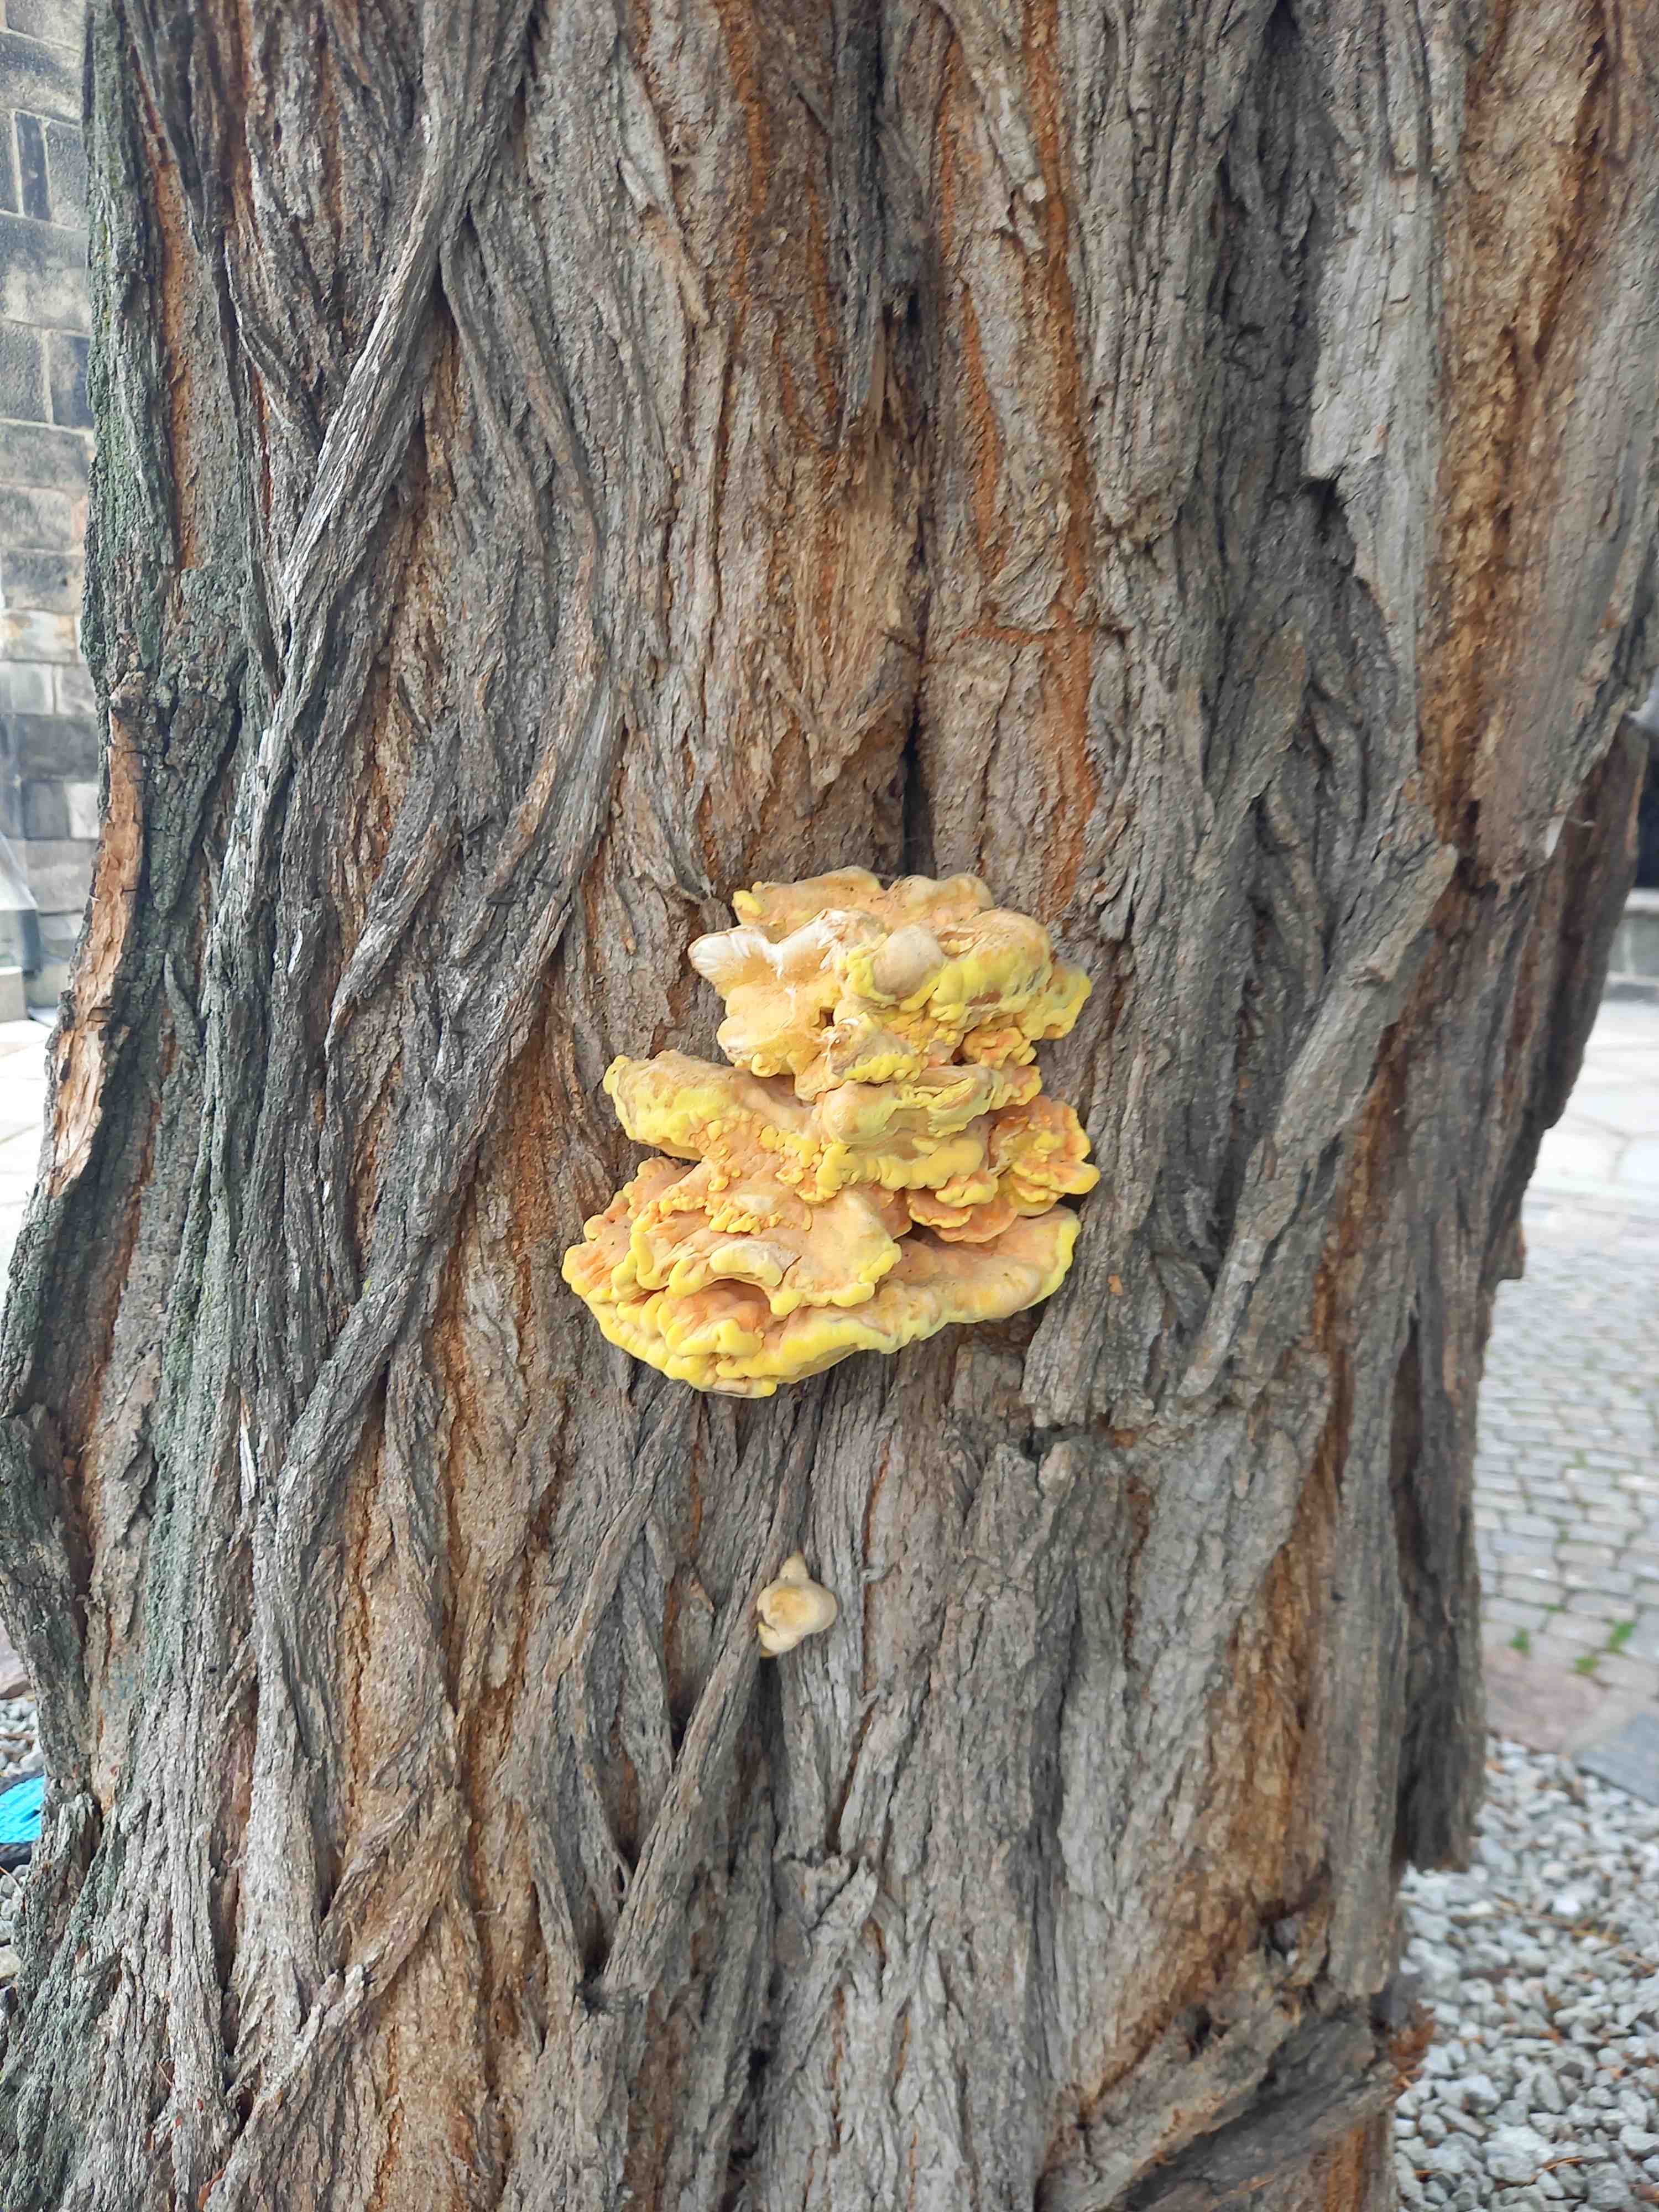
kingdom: Fungi
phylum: Basidiomycota
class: Agaricomycetes
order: Polyporales
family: Laetiporaceae
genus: Laetiporus
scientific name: Laetiporus sulphureus
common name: svovlporesvamp
